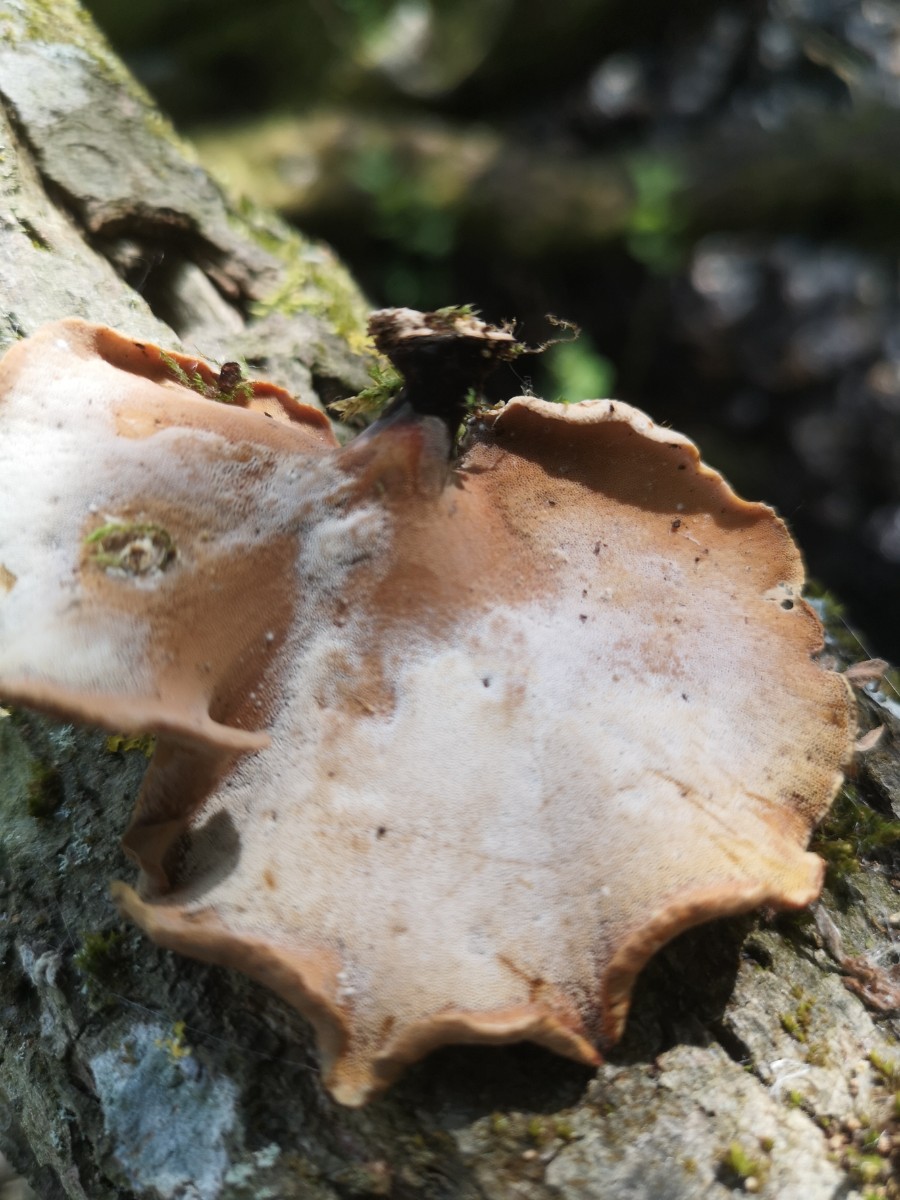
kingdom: Fungi
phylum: Basidiomycota
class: Agaricomycetes
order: Polyporales
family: Polyporaceae
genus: Cerioporus
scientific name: Cerioporus varius
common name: foranderlig stilkporesvamp
